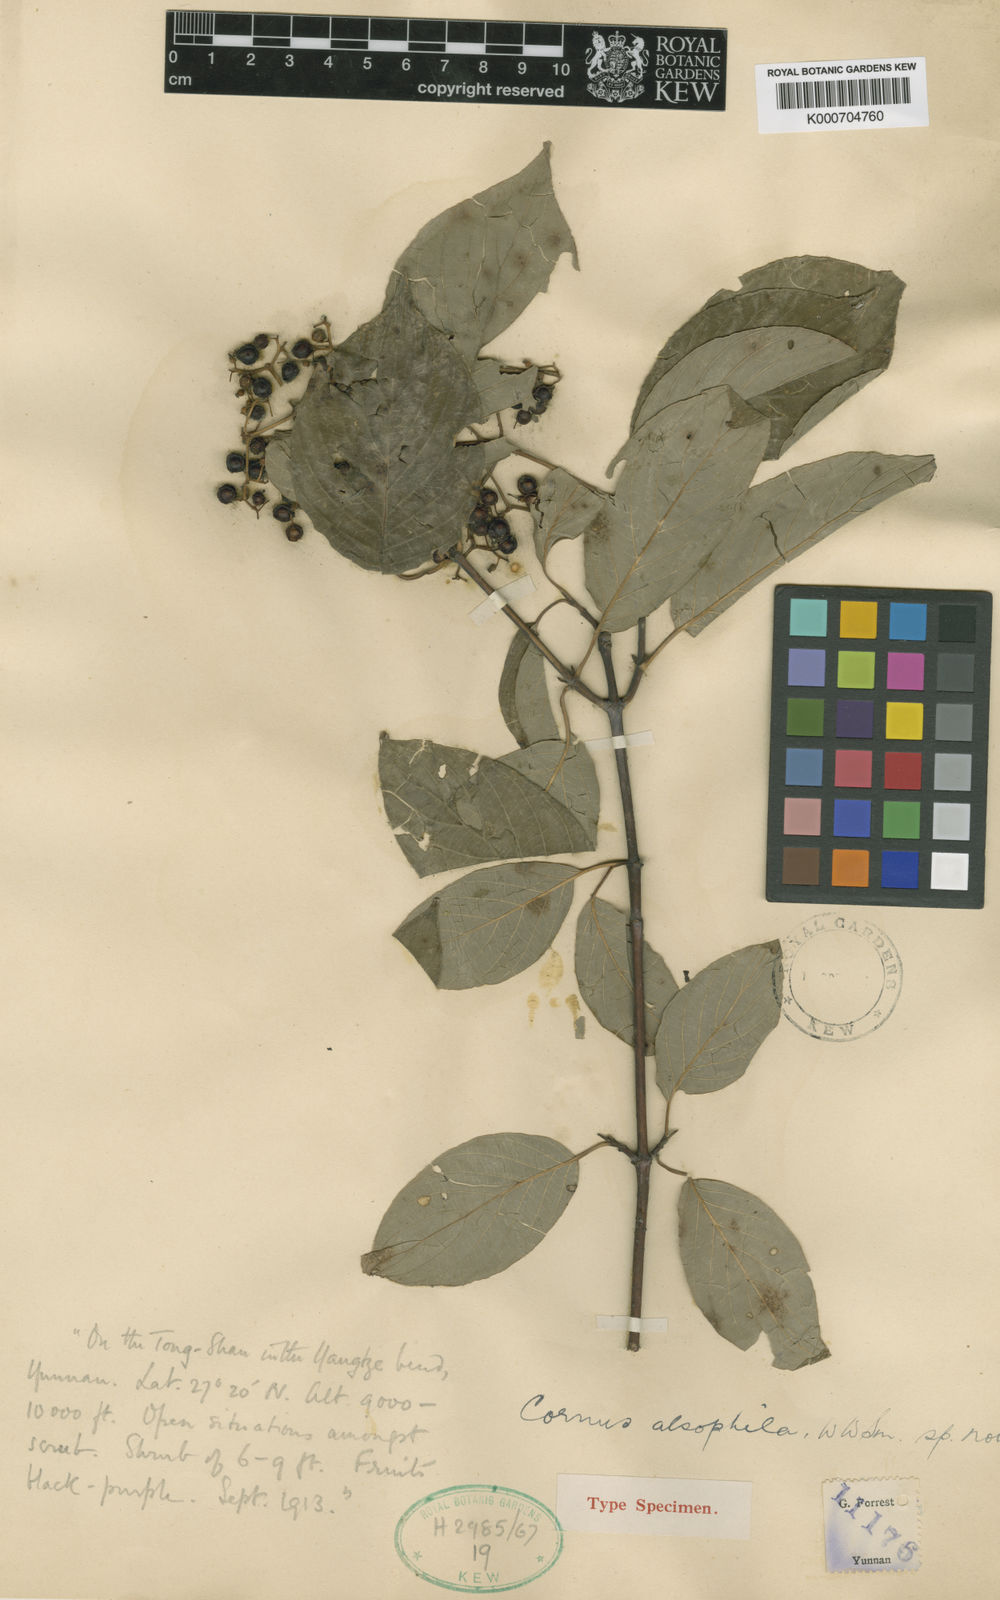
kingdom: Plantae
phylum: Tracheophyta
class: Magnoliopsida
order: Cornales
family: Cornaceae
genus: Cornus
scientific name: Cornus hemsleyi
